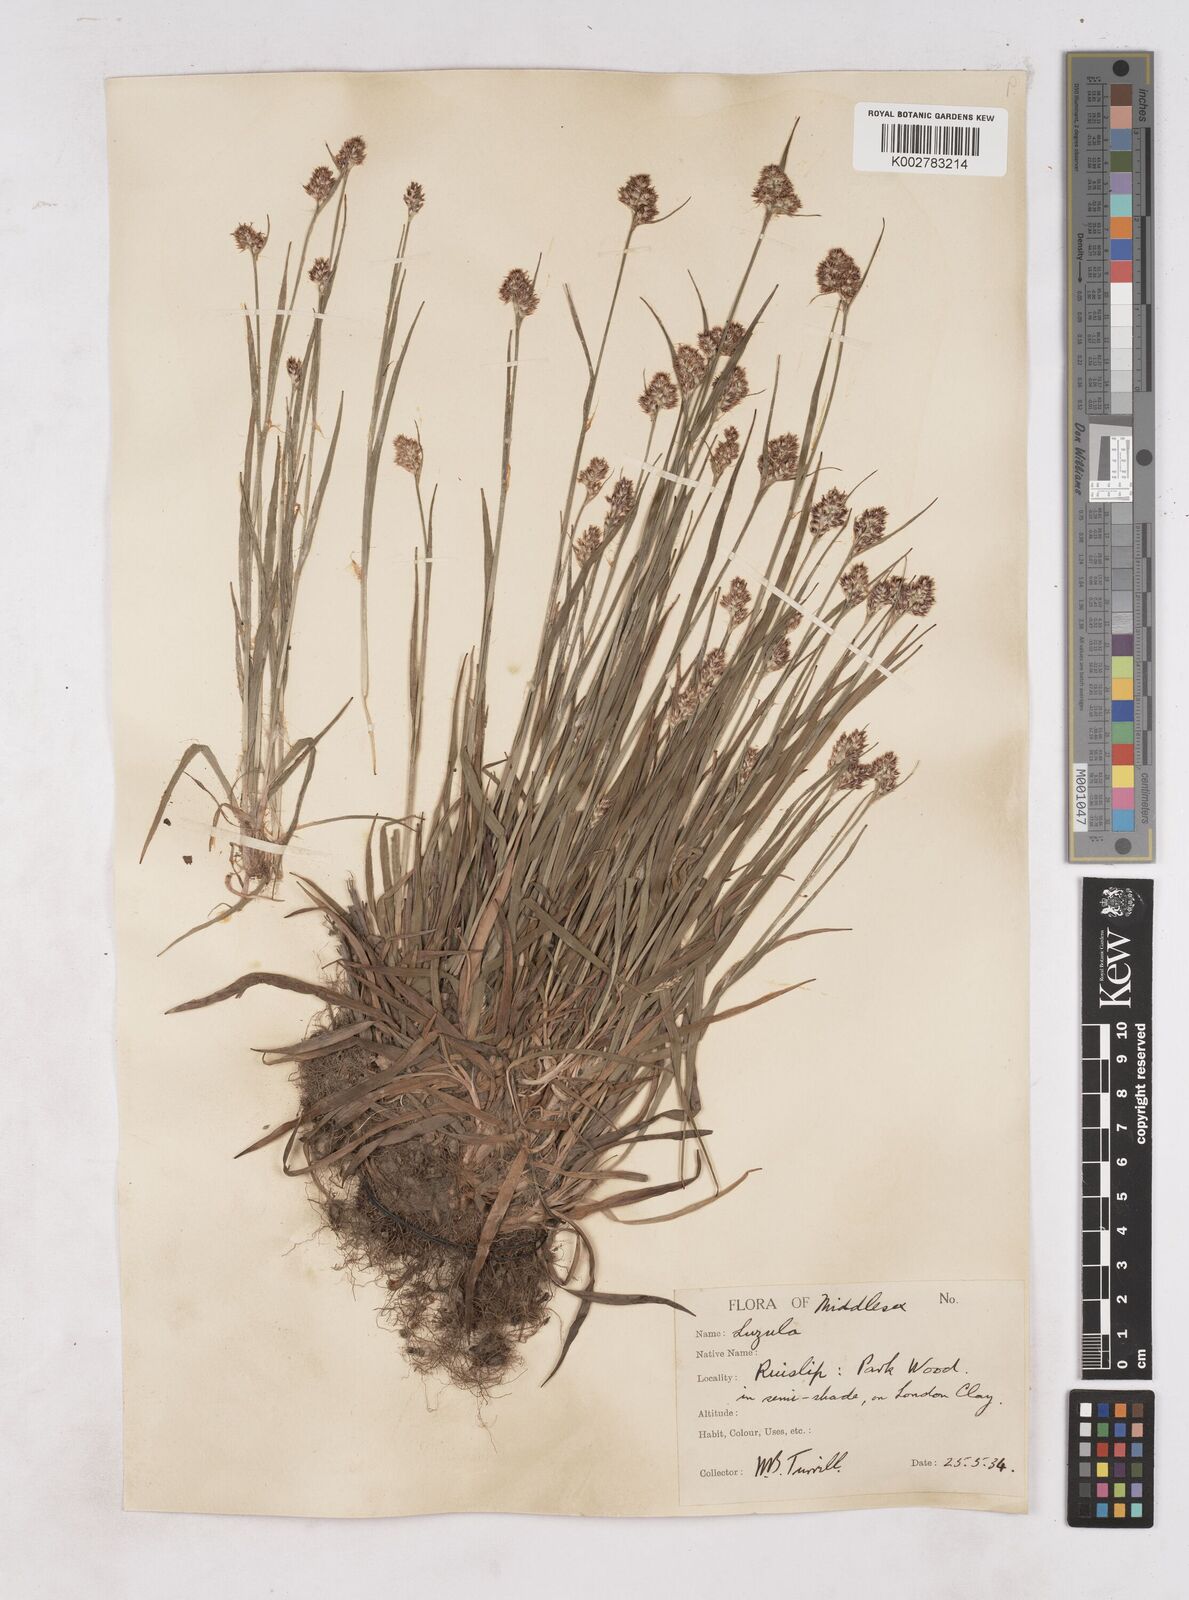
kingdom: Plantae
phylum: Tracheophyta
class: Liliopsida
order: Poales
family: Juncaceae
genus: Luzula
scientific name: Luzula multiflora
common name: Heath wood-rush
